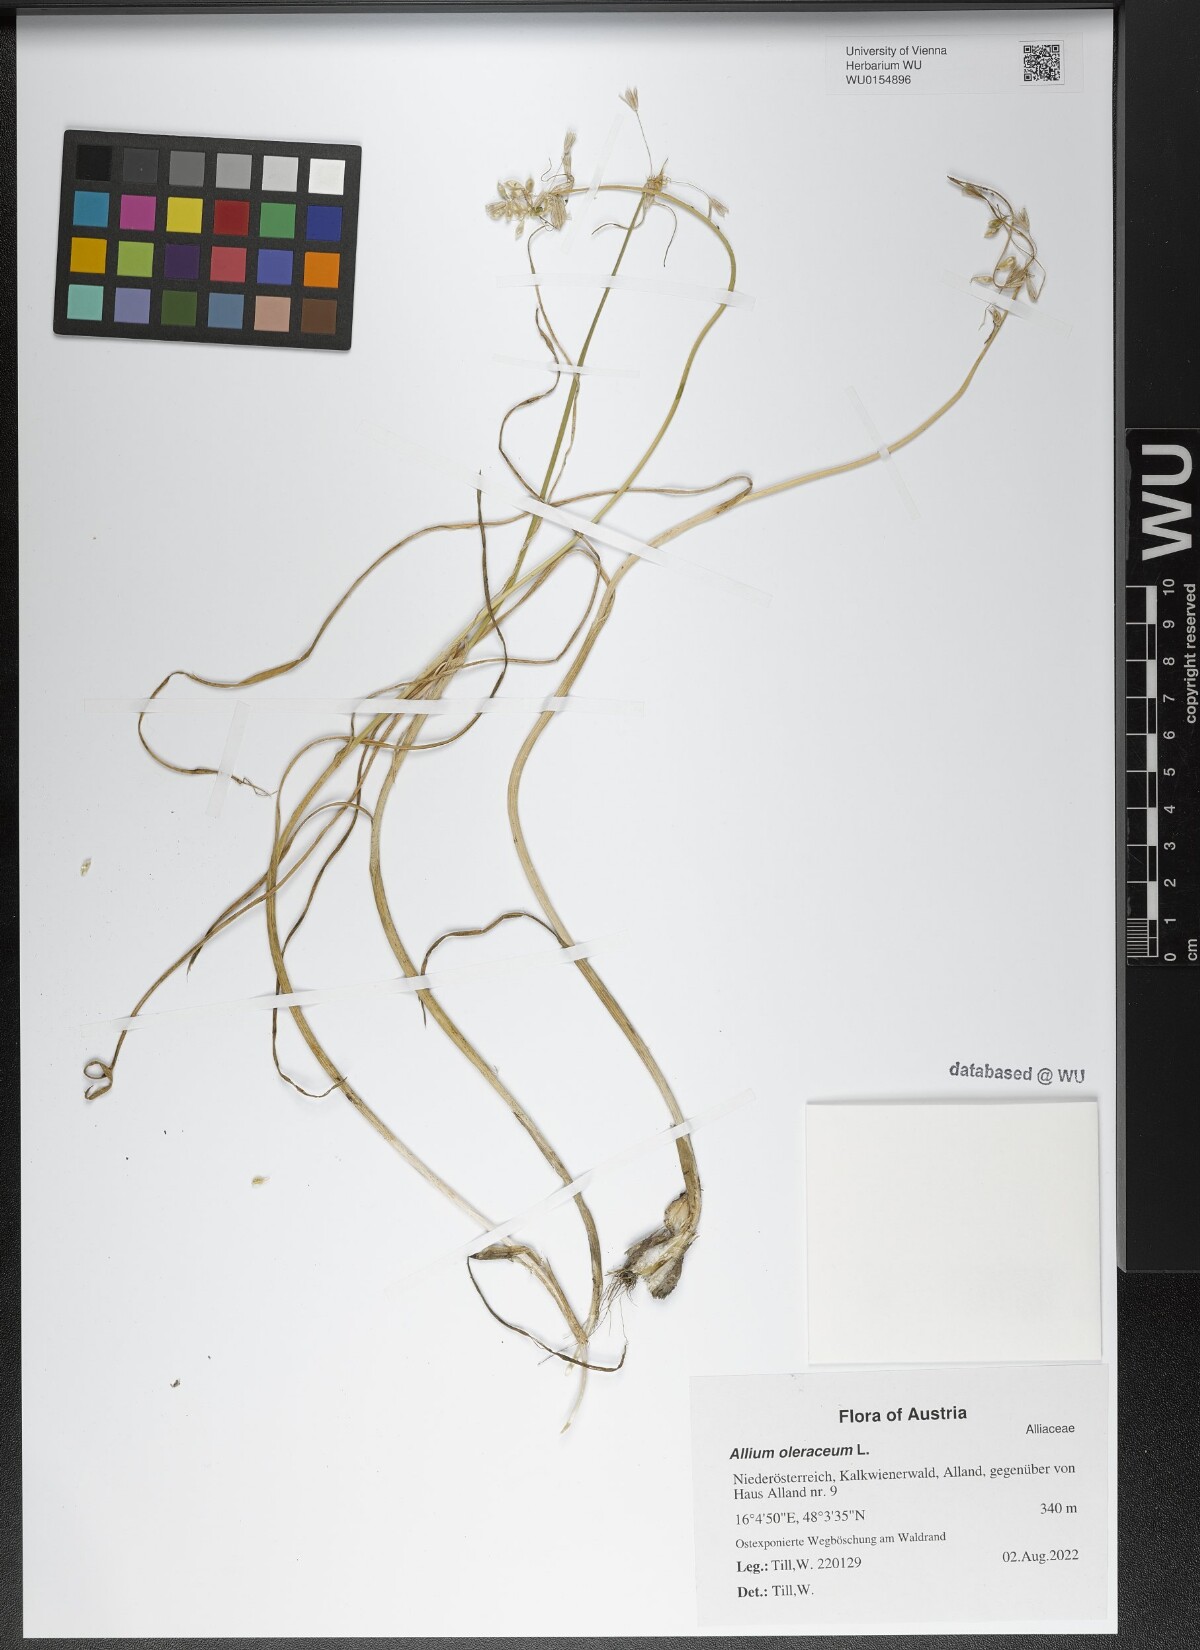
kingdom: Plantae
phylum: Tracheophyta
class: Liliopsida
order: Asparagales
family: Amaryllidaceae
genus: Allium
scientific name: Allium oleraceum
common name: Field garlic
